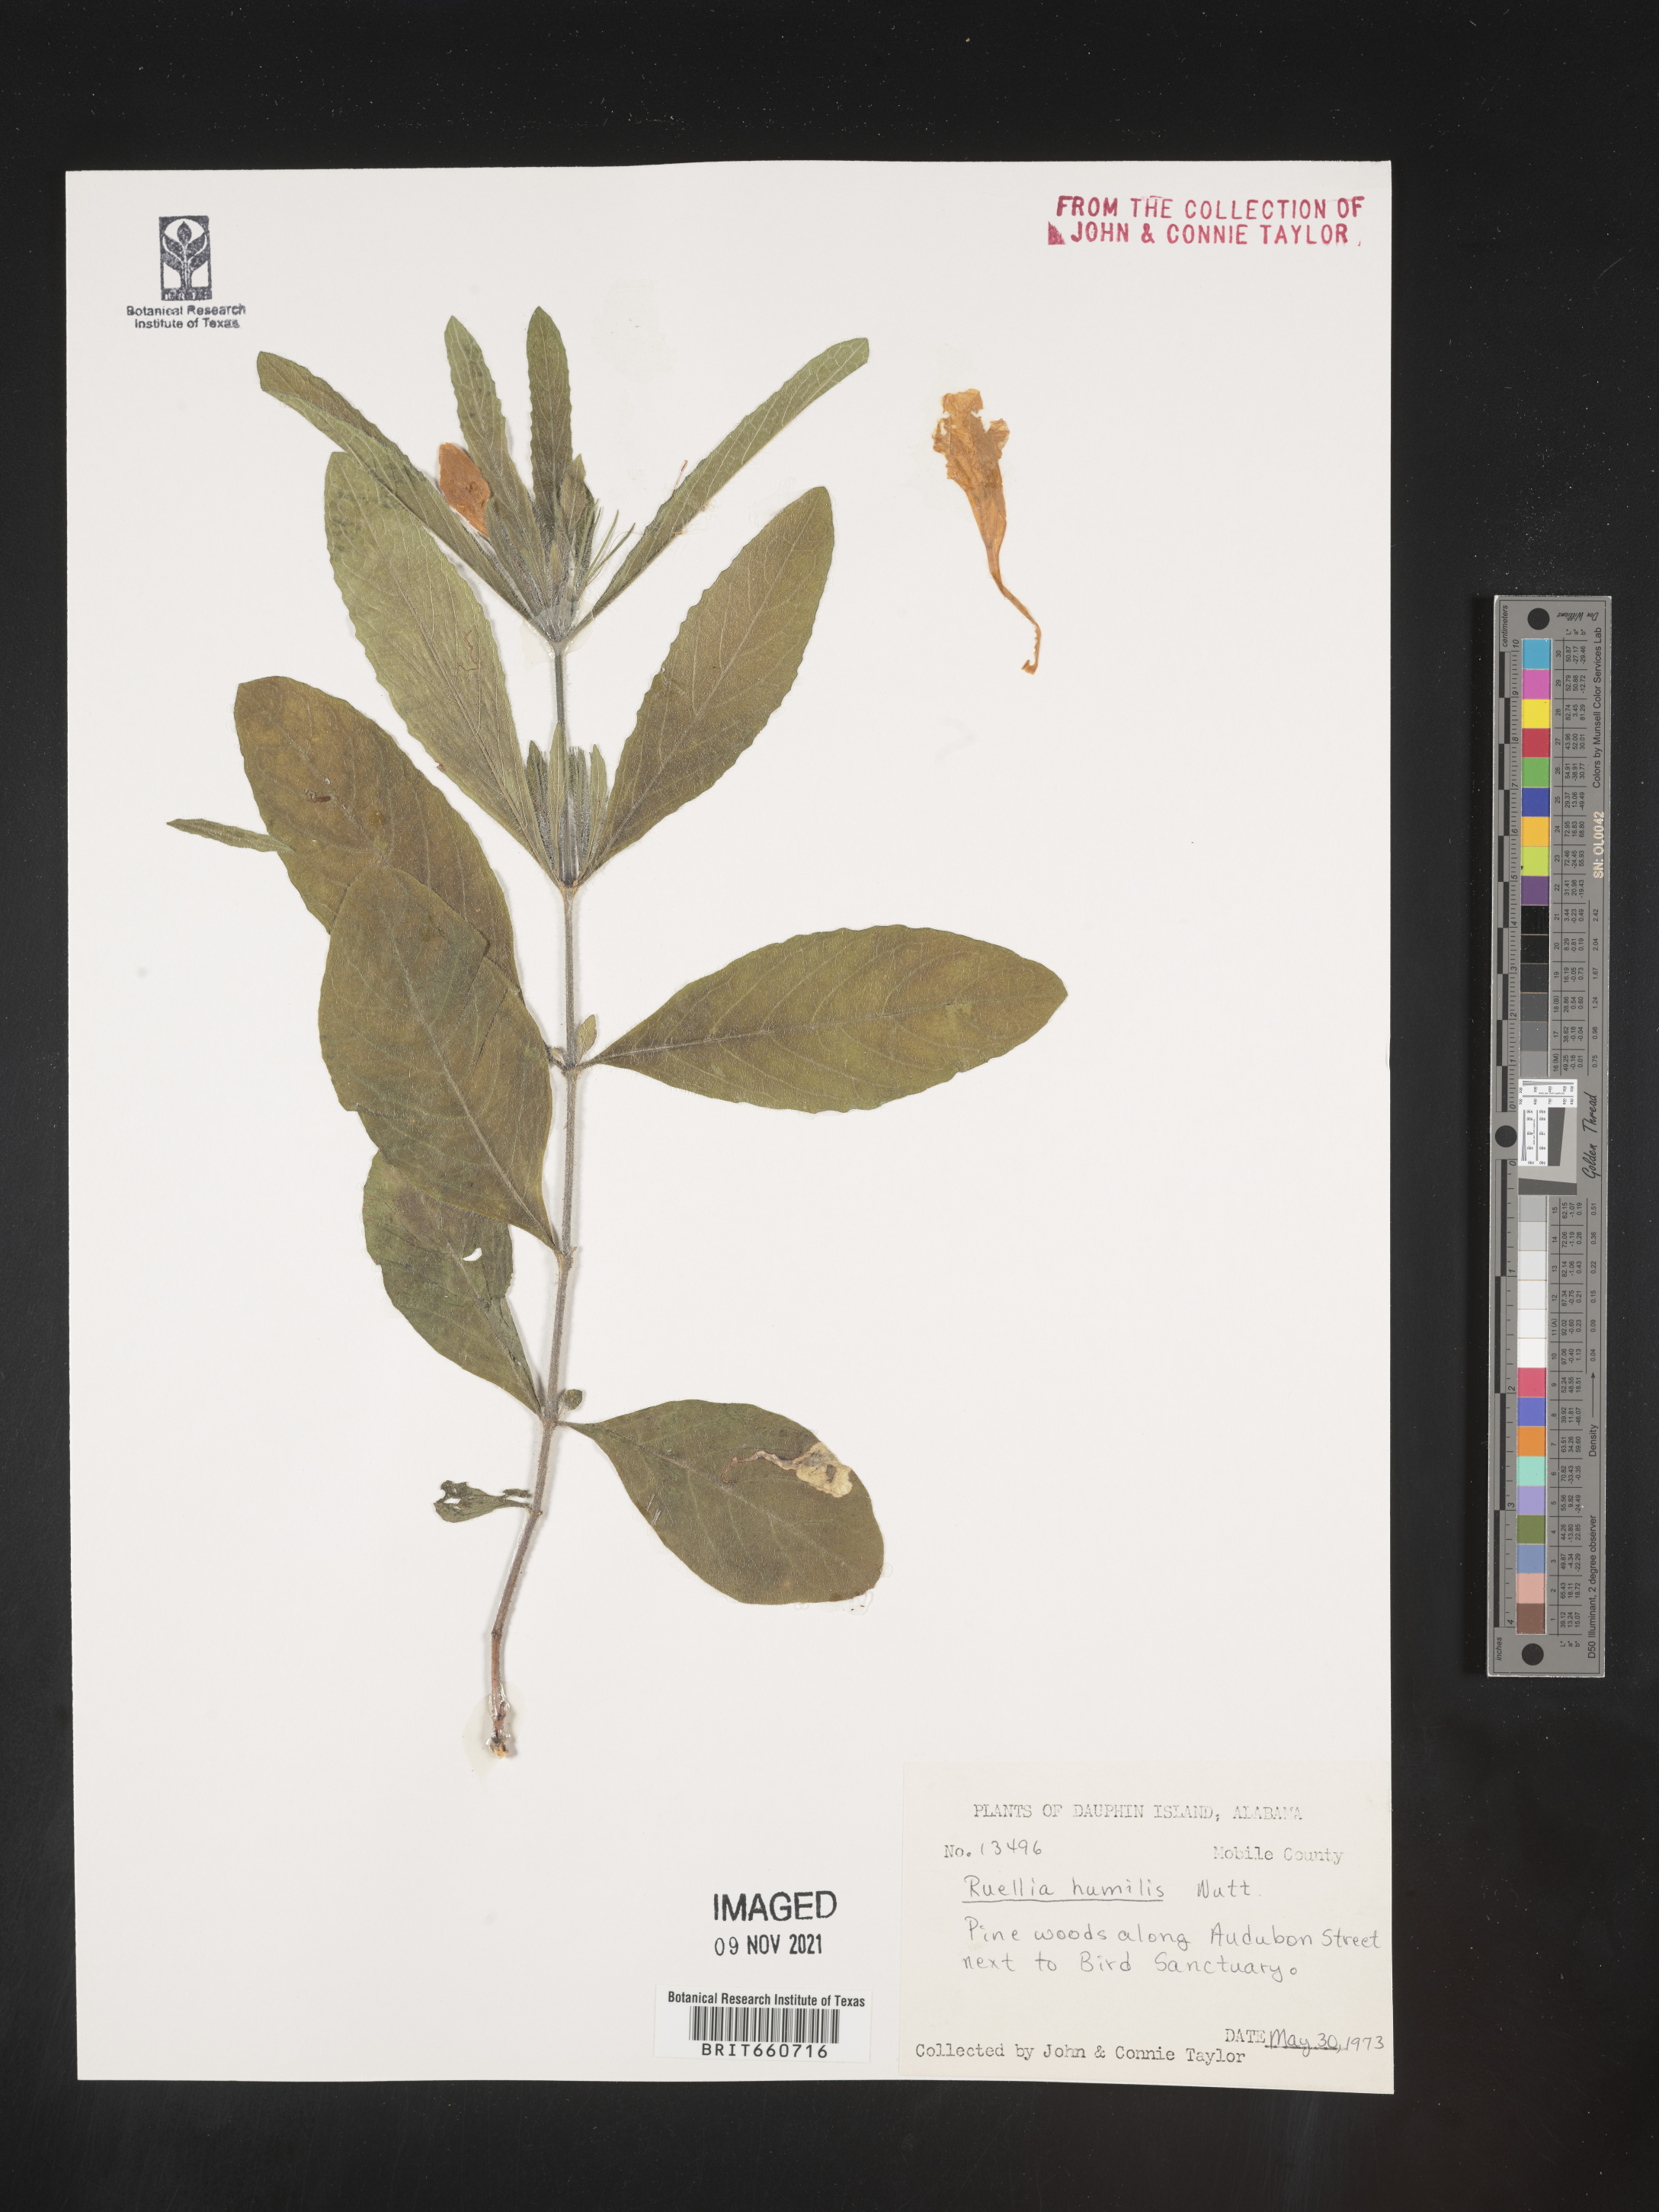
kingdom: Plantae
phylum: Tracheophyta
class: Magnoliopsida
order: Lamiales
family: Acanthaceae
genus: Ruellia
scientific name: Ruellia humilis
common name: Fringe-leaf ruellia
